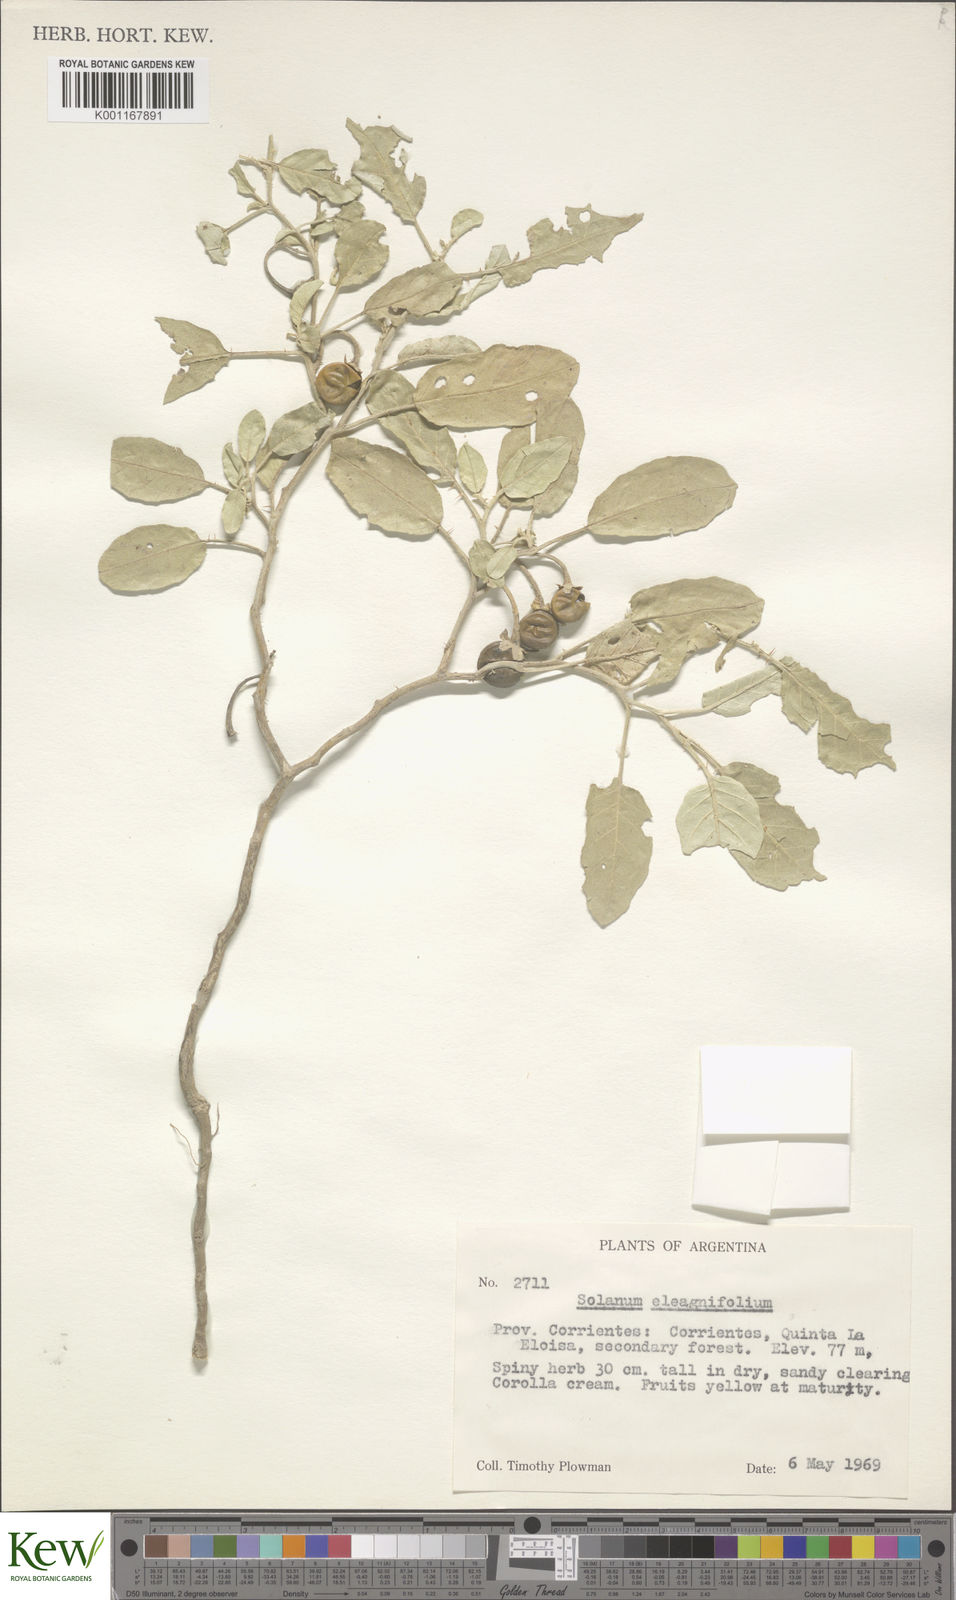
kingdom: Plantae
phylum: Tracheophyta
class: Magnoliopsida
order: Solanales
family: Solanaceae
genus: Solanum
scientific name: Solanum elaeagnifolium
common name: Silverleaf nightshade
